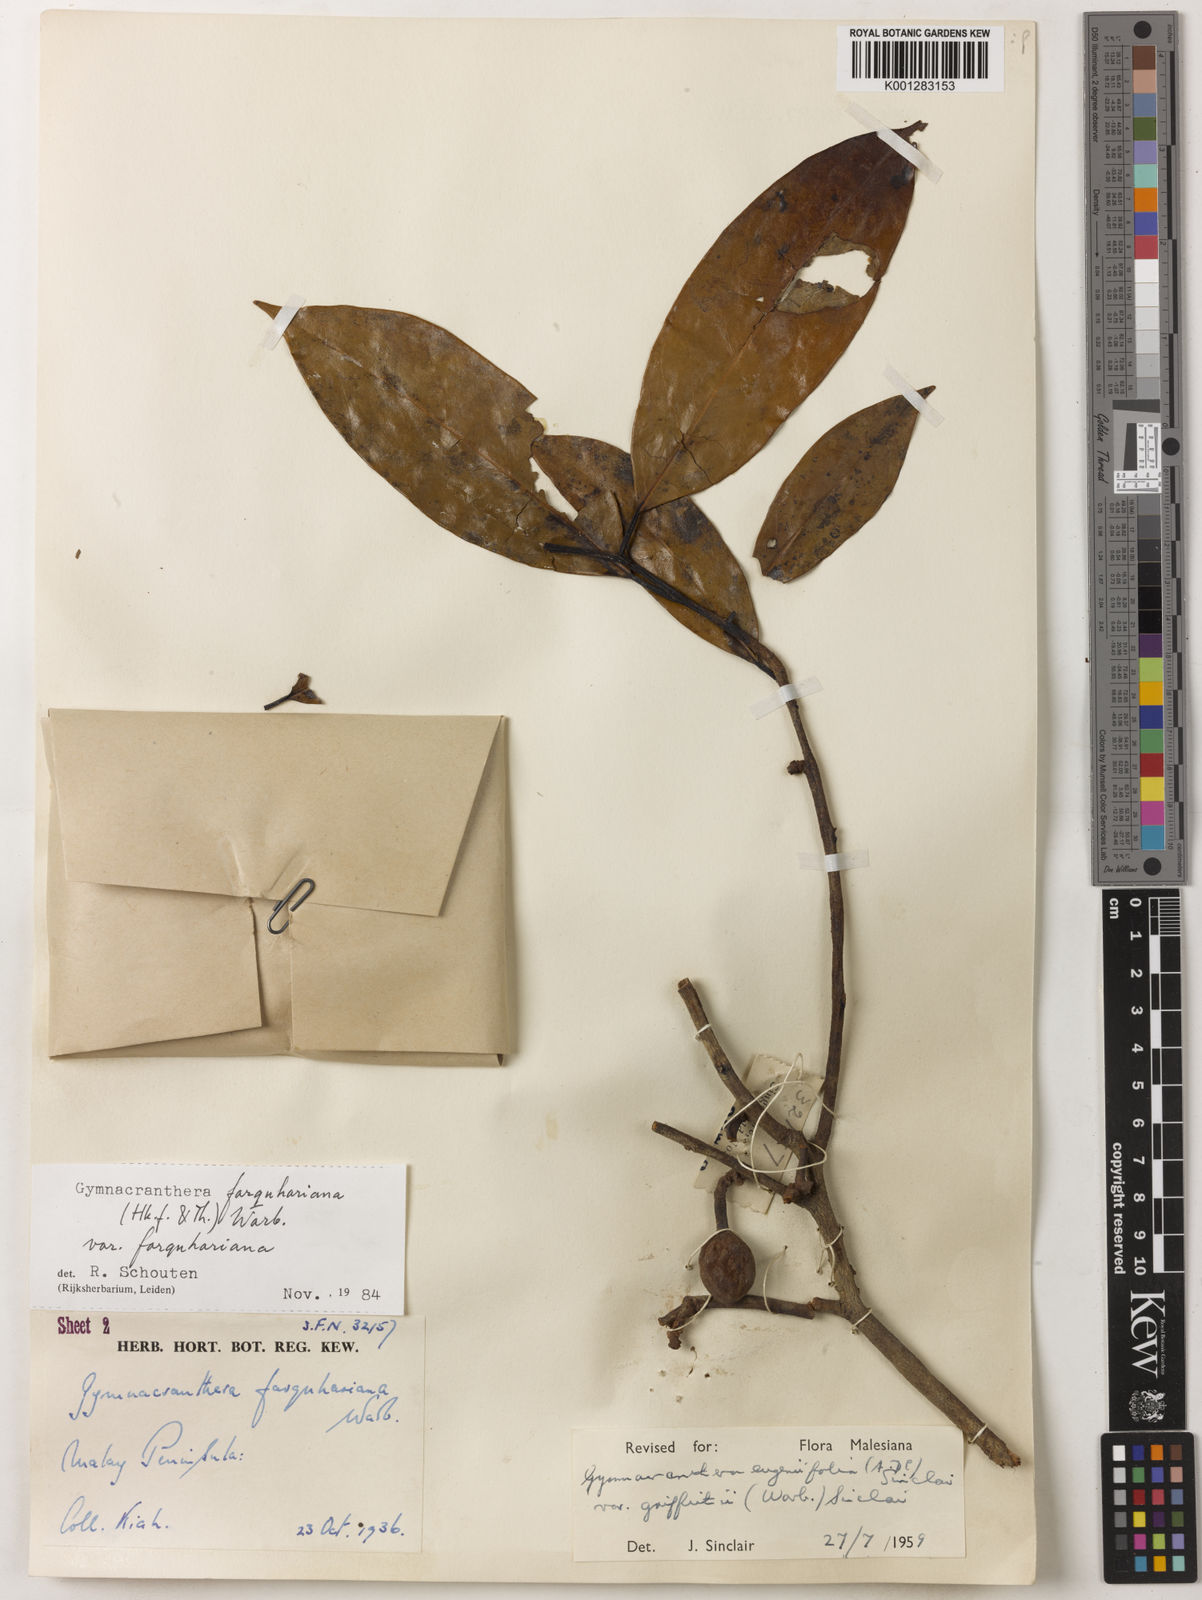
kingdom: Plantae
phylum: Tracheophyta
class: Magnoliopsida
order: Magnoliales
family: Myristicaceae
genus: Gymnacranthera
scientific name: Gymnacranthera farquhariana
